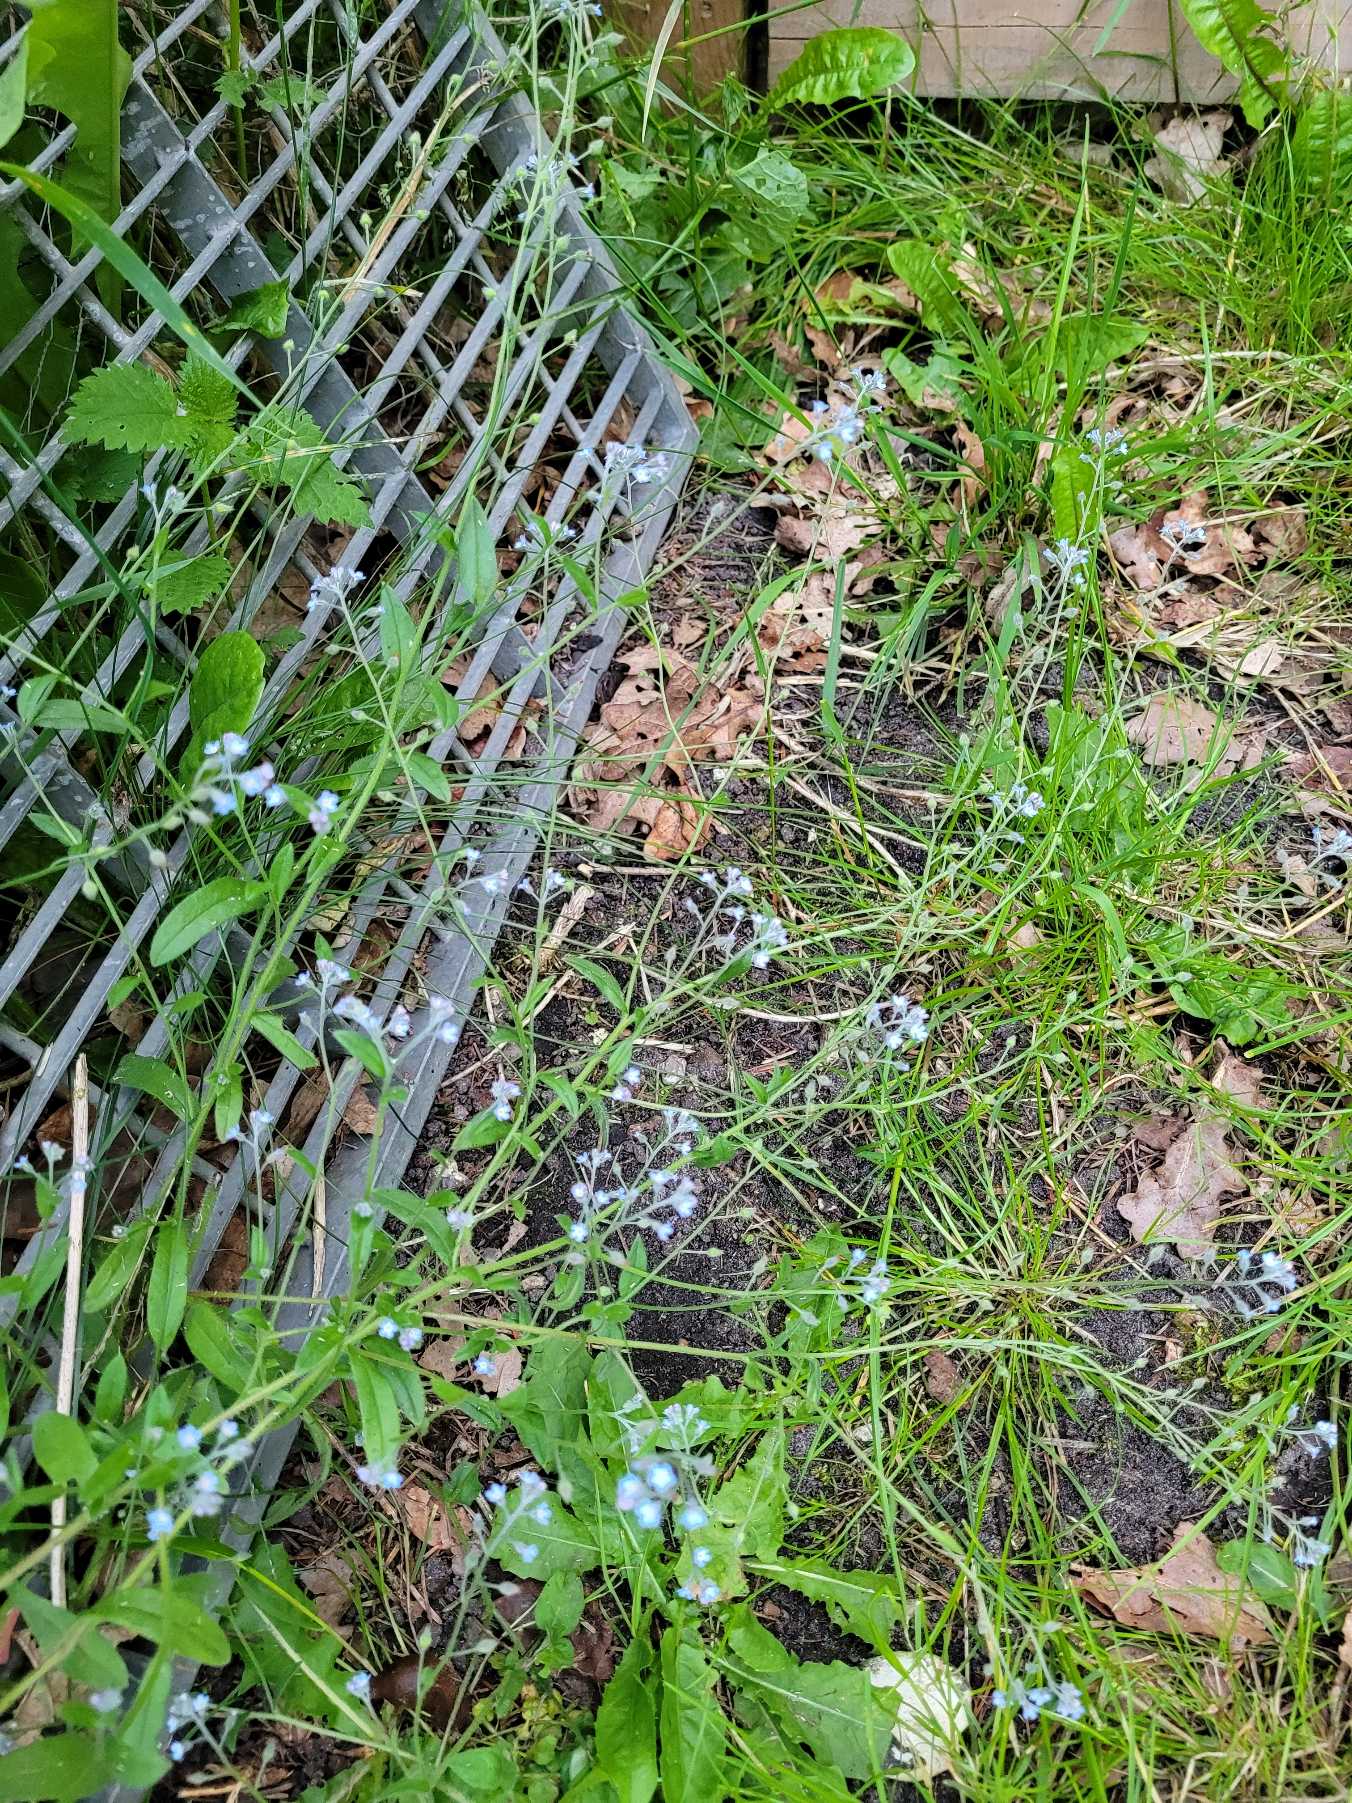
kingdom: Plantae
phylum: Tracheophyta
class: Magnoliopsida
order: Boraginales
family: Boraginaceae
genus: Myosotis
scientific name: Myosotis arvensis
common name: Mark-forglemmigej
